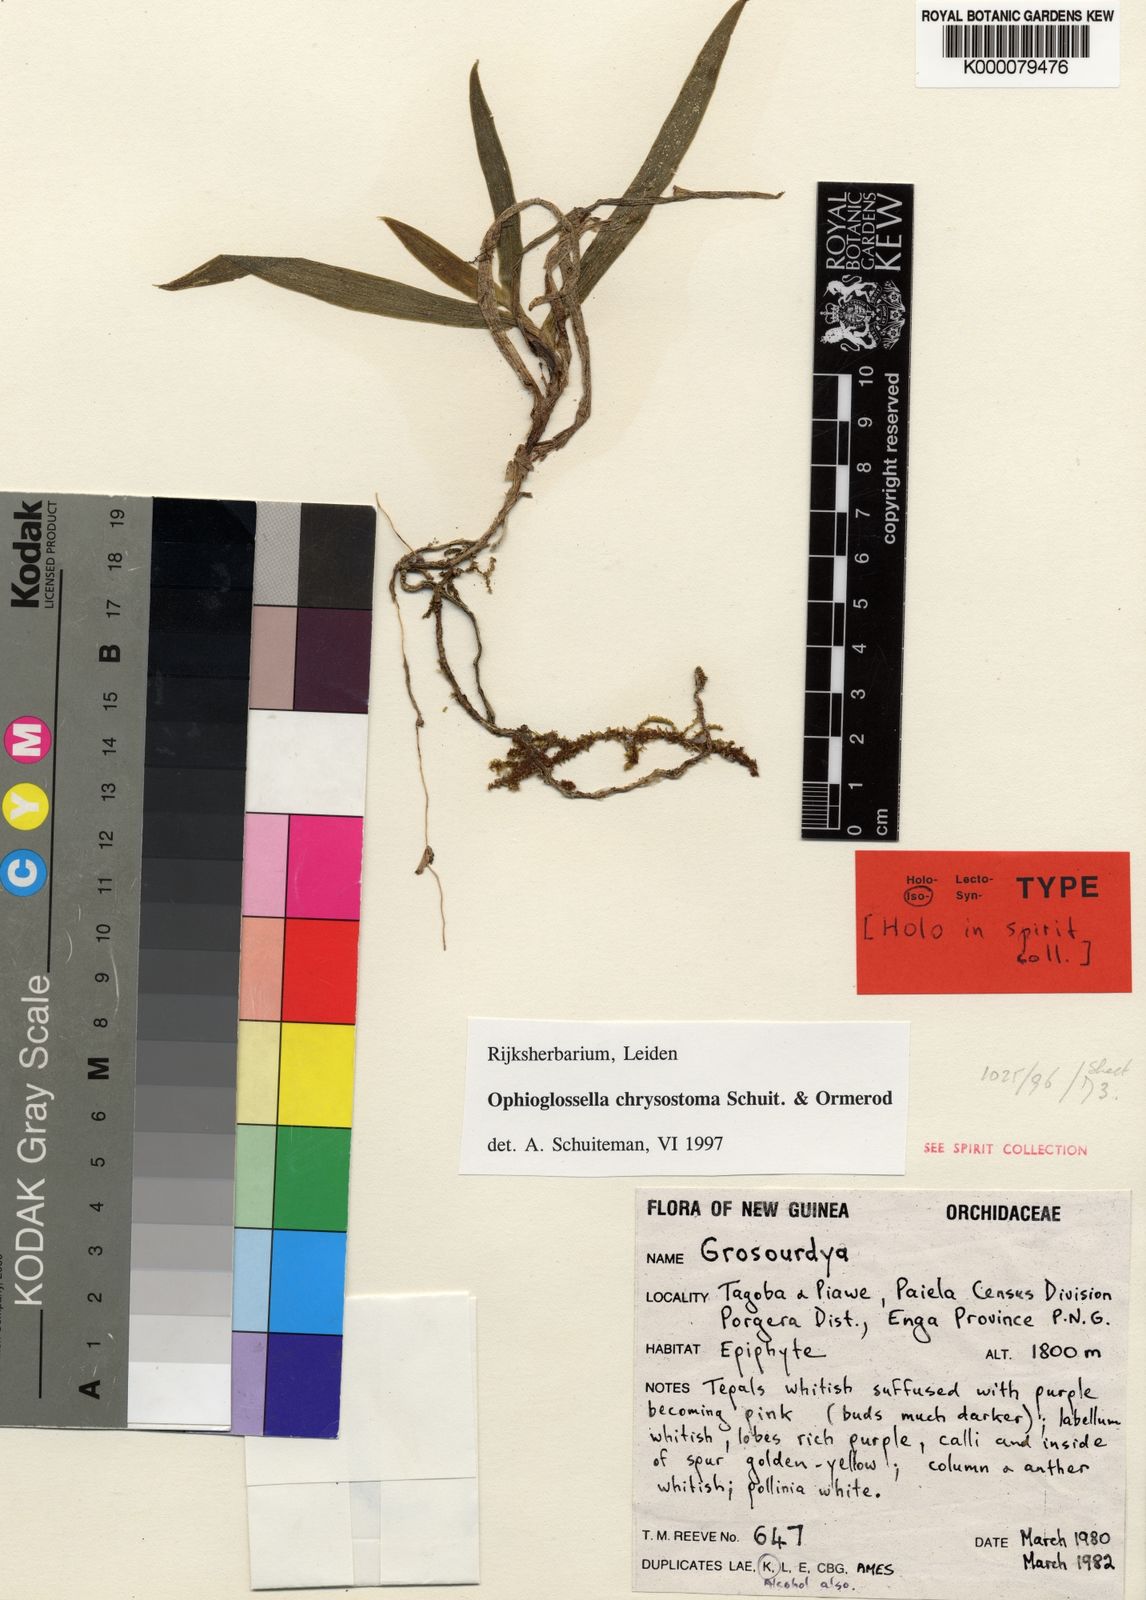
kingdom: Plantae
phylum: Tracheophyta
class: Liliopsida
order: Asparagales
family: Orchidaceae
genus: Ophioglossella
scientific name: Ophioglossella chrysostoma
